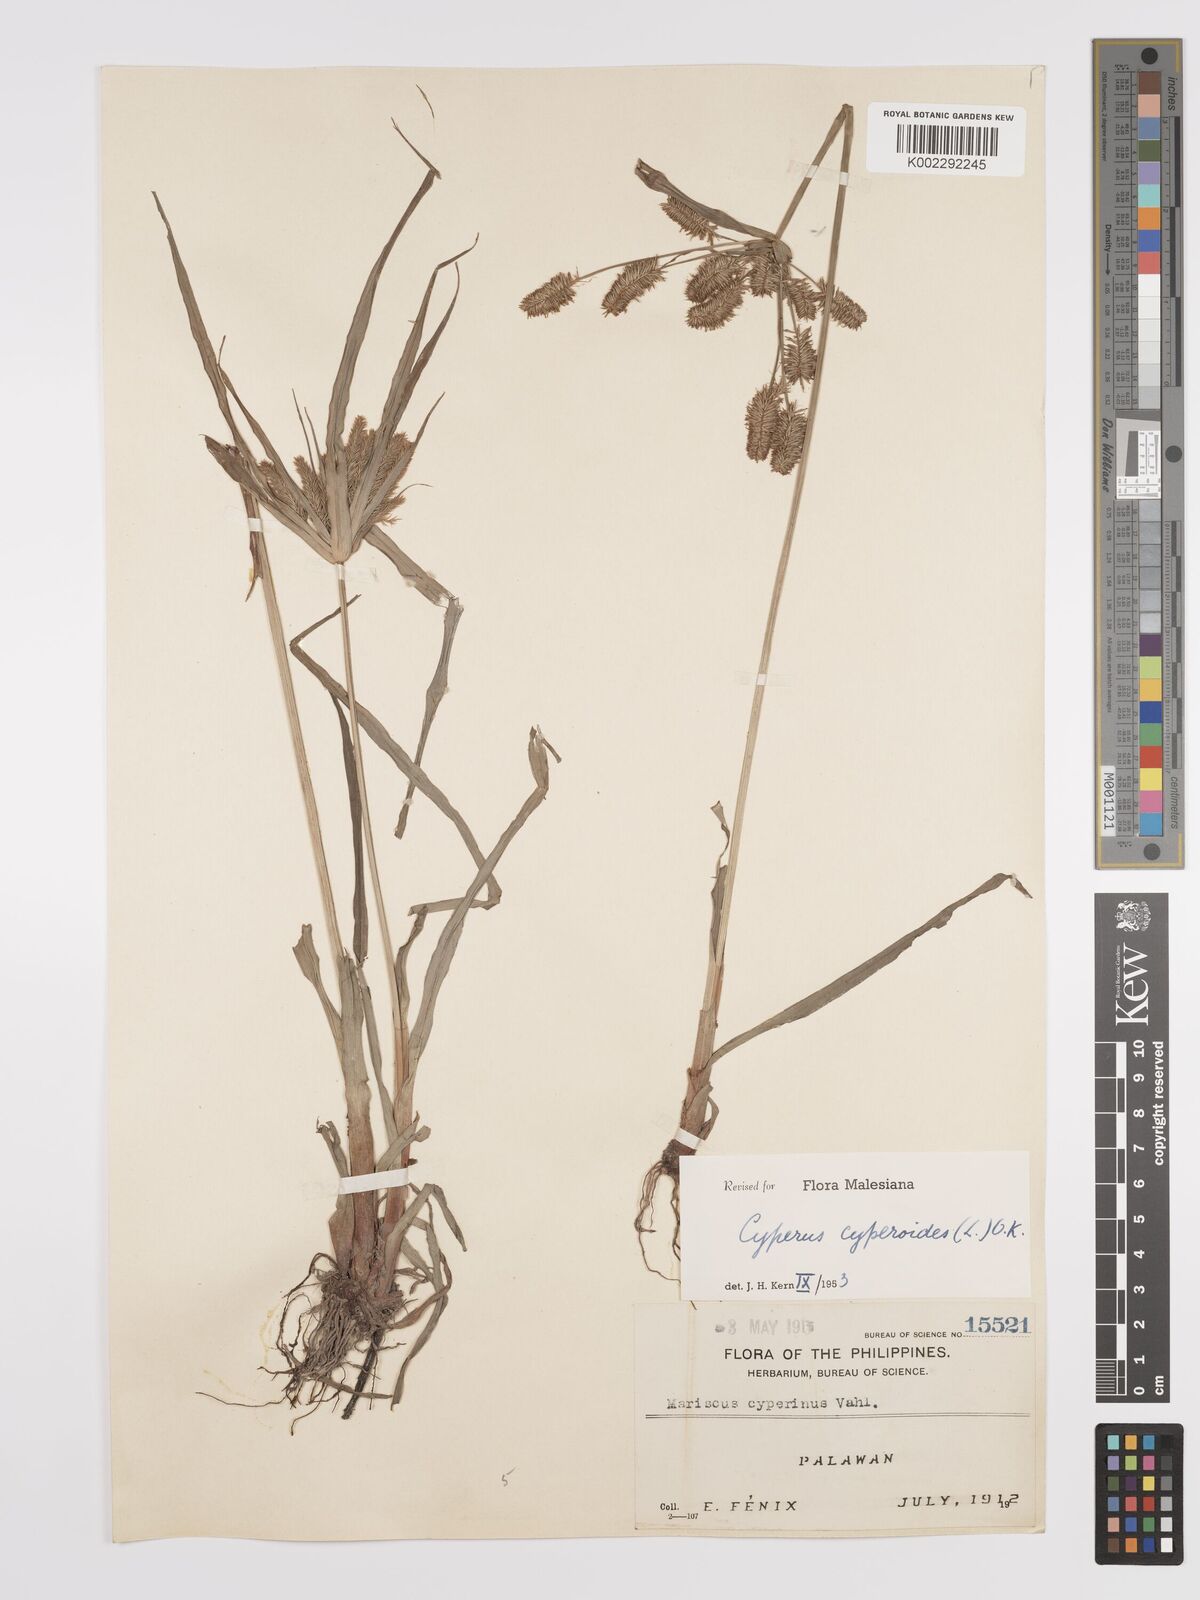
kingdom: Plantae
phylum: Tracheophyta
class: Liliopsida
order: Poales
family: Cyperaceae
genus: Cyperus
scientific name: Cyperus cyperoides
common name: Pacific island flat sedge
